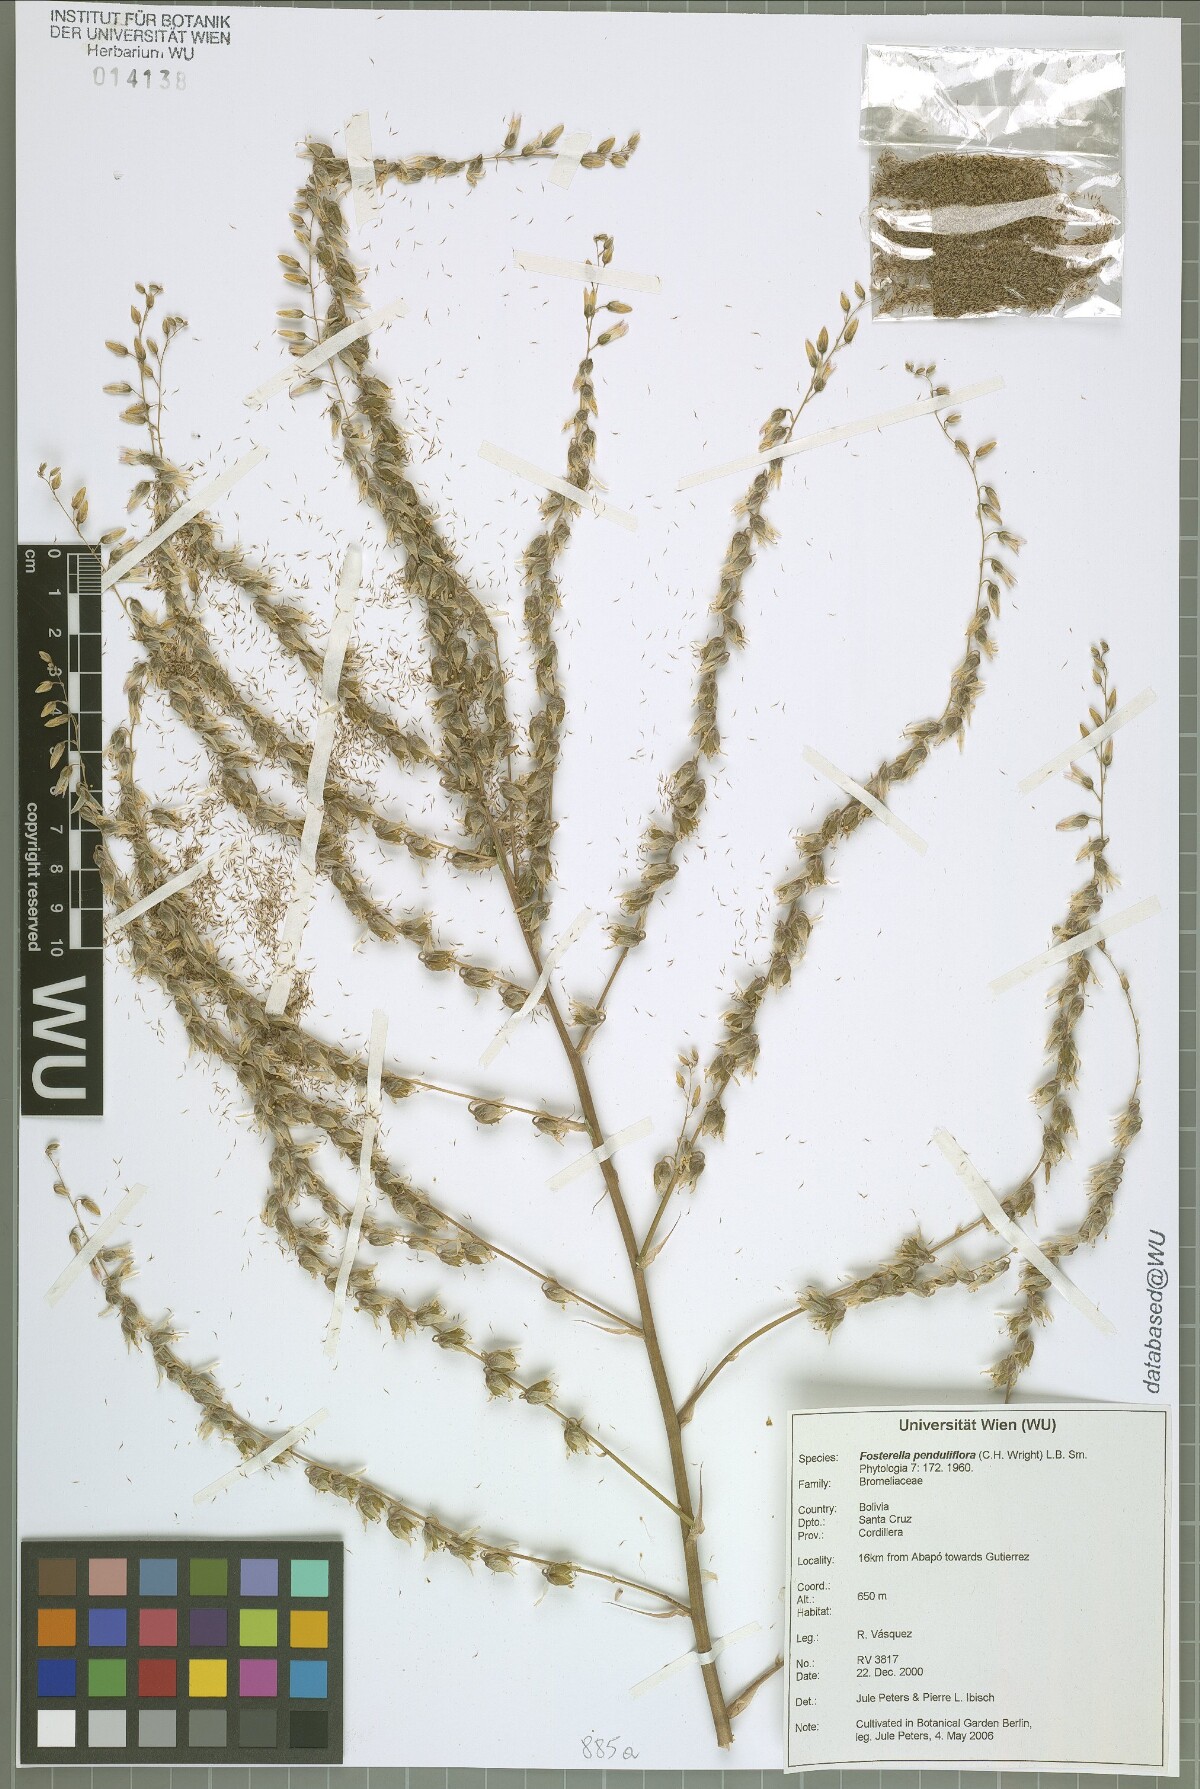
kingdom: Plantae
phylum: Tracheophyta
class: Liliopsida
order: Poales
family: Bromeliaceae
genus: Fosterella
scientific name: Fosterella penduliflora
